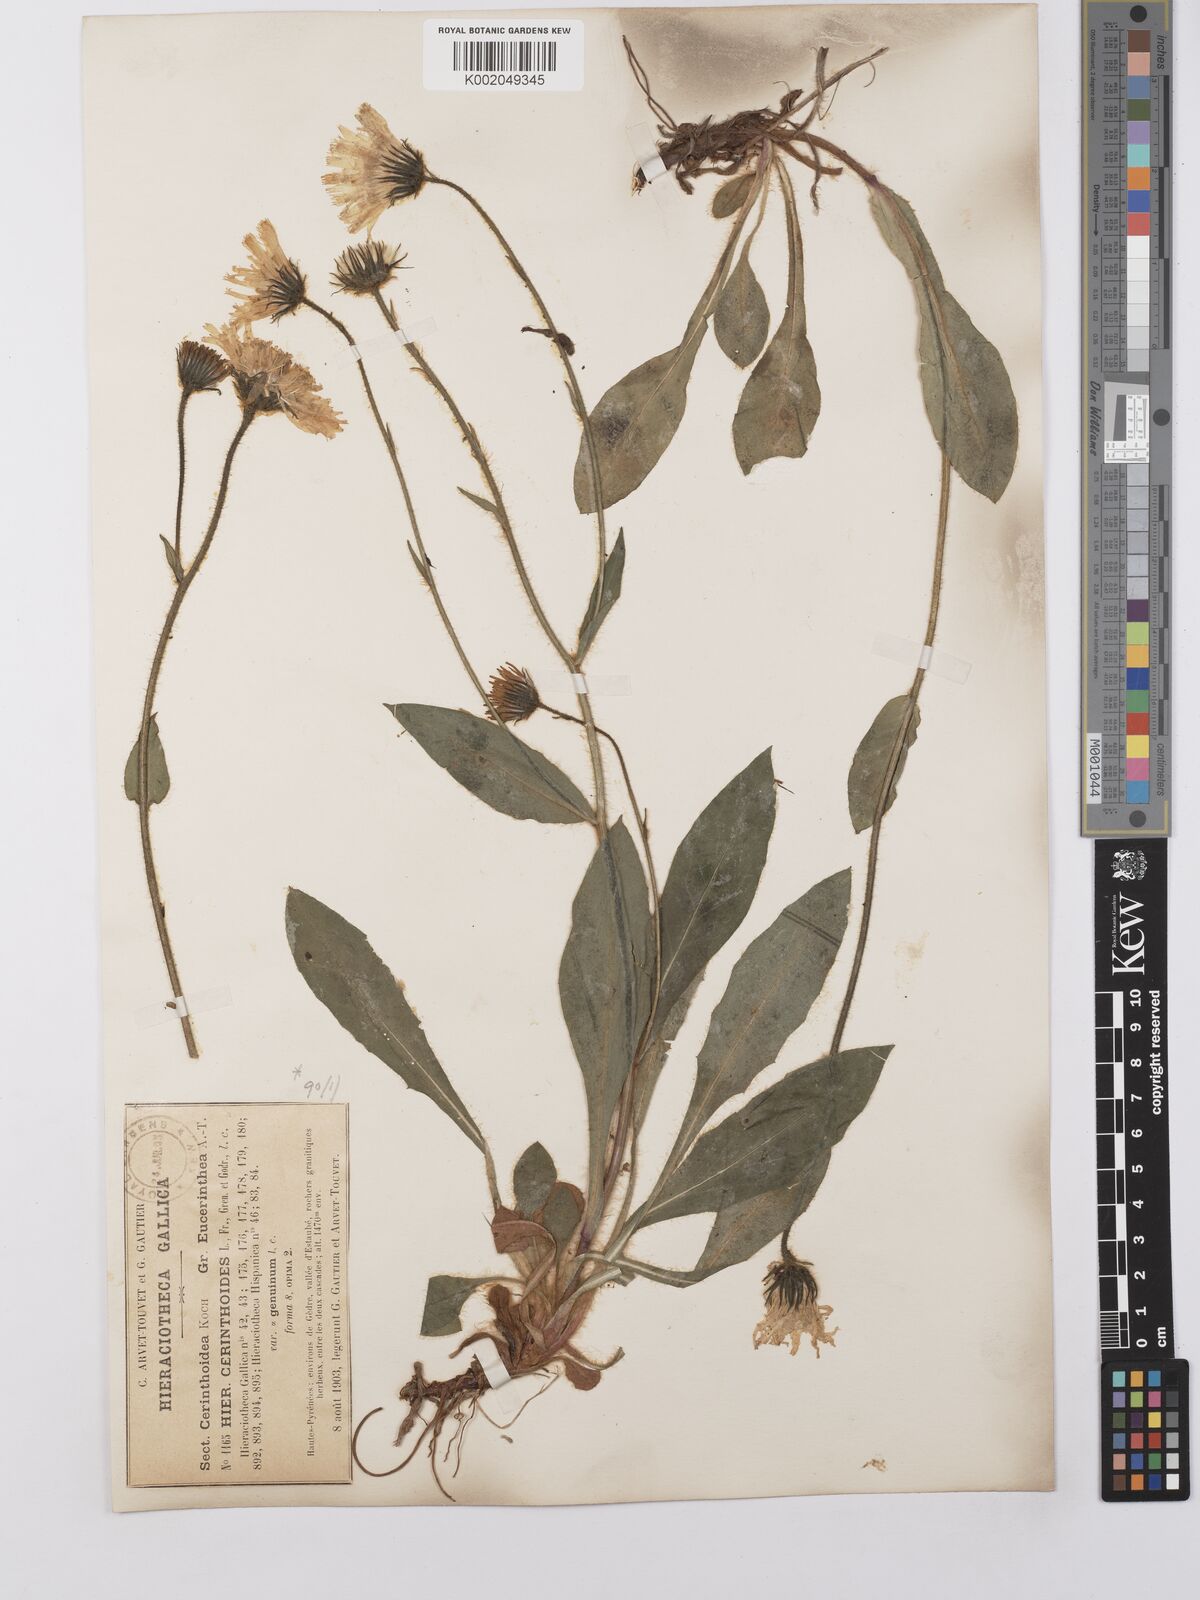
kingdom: Plantae
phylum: Tracheophyta
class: Magnoliopsida
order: Asterales
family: Asteraceae
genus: Hieracium
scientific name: Hieracium cerinthoides
